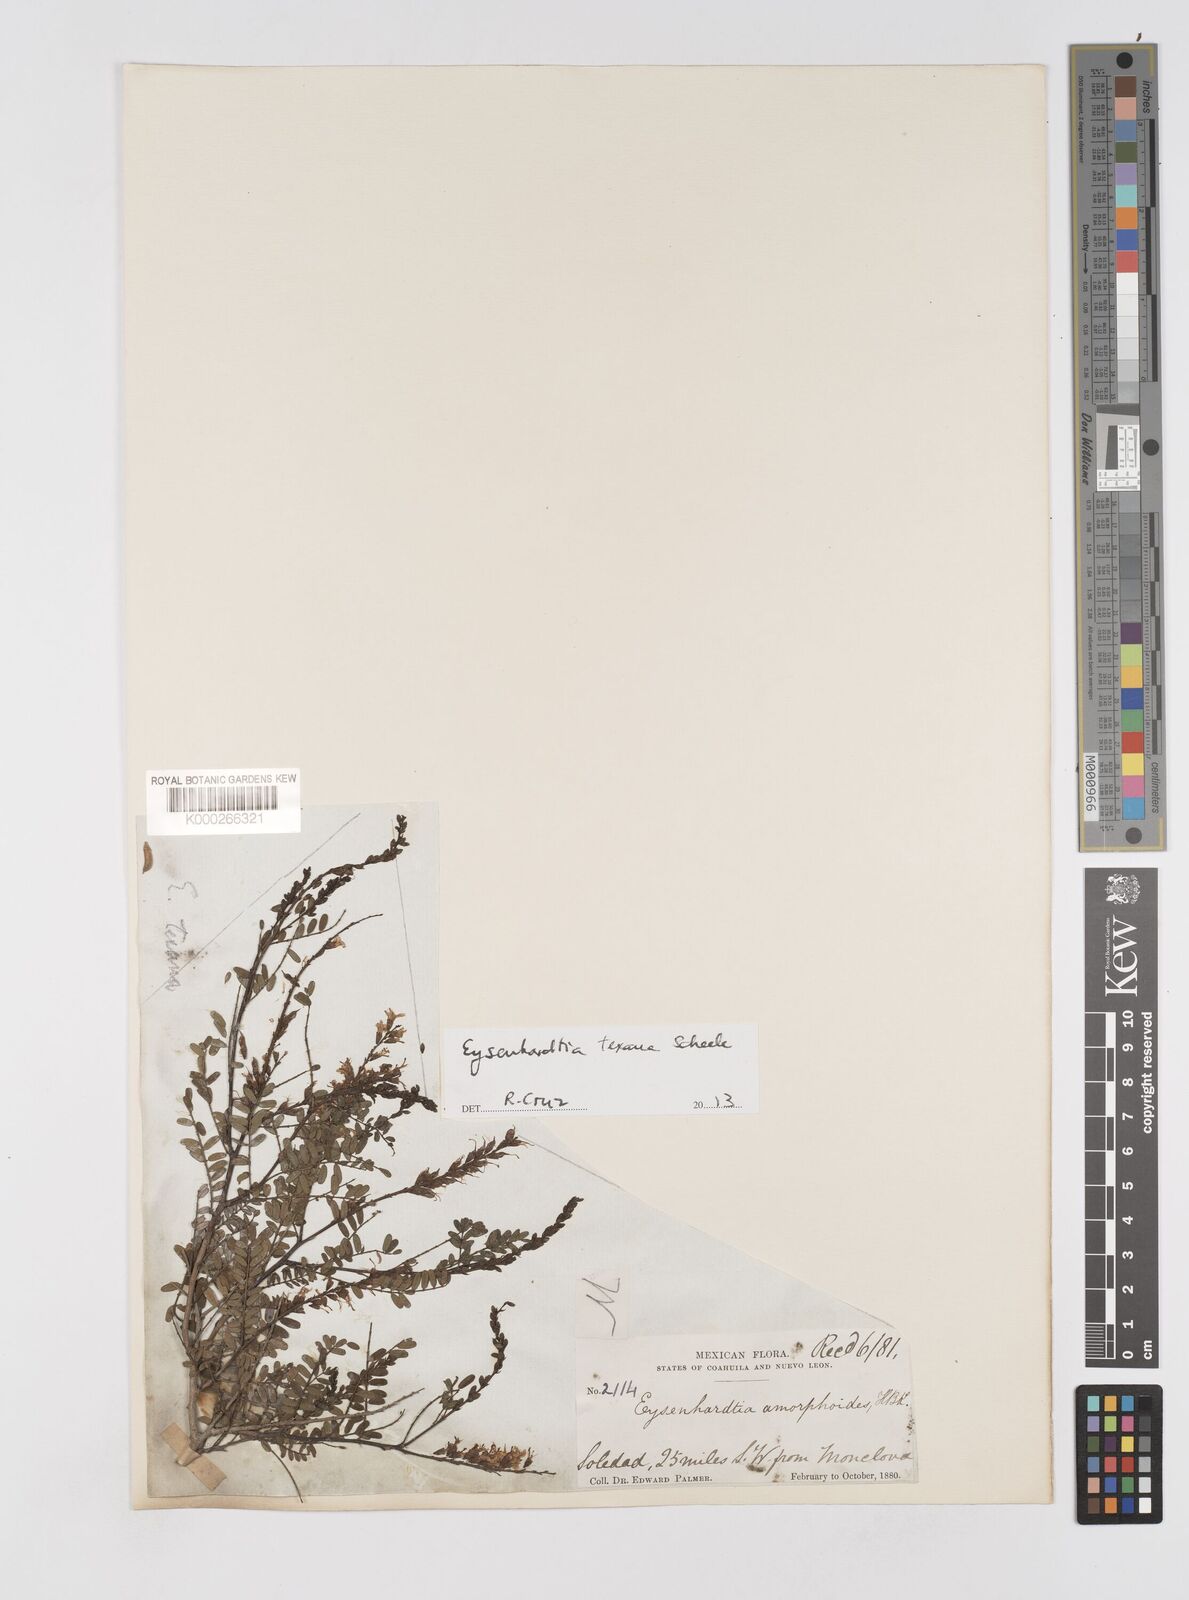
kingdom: Plantae
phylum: Tracheophyta
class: Magnoliopsida
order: Fabales
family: Fabaceae
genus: Eysenhardtia
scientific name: Eysenhardtia texana
